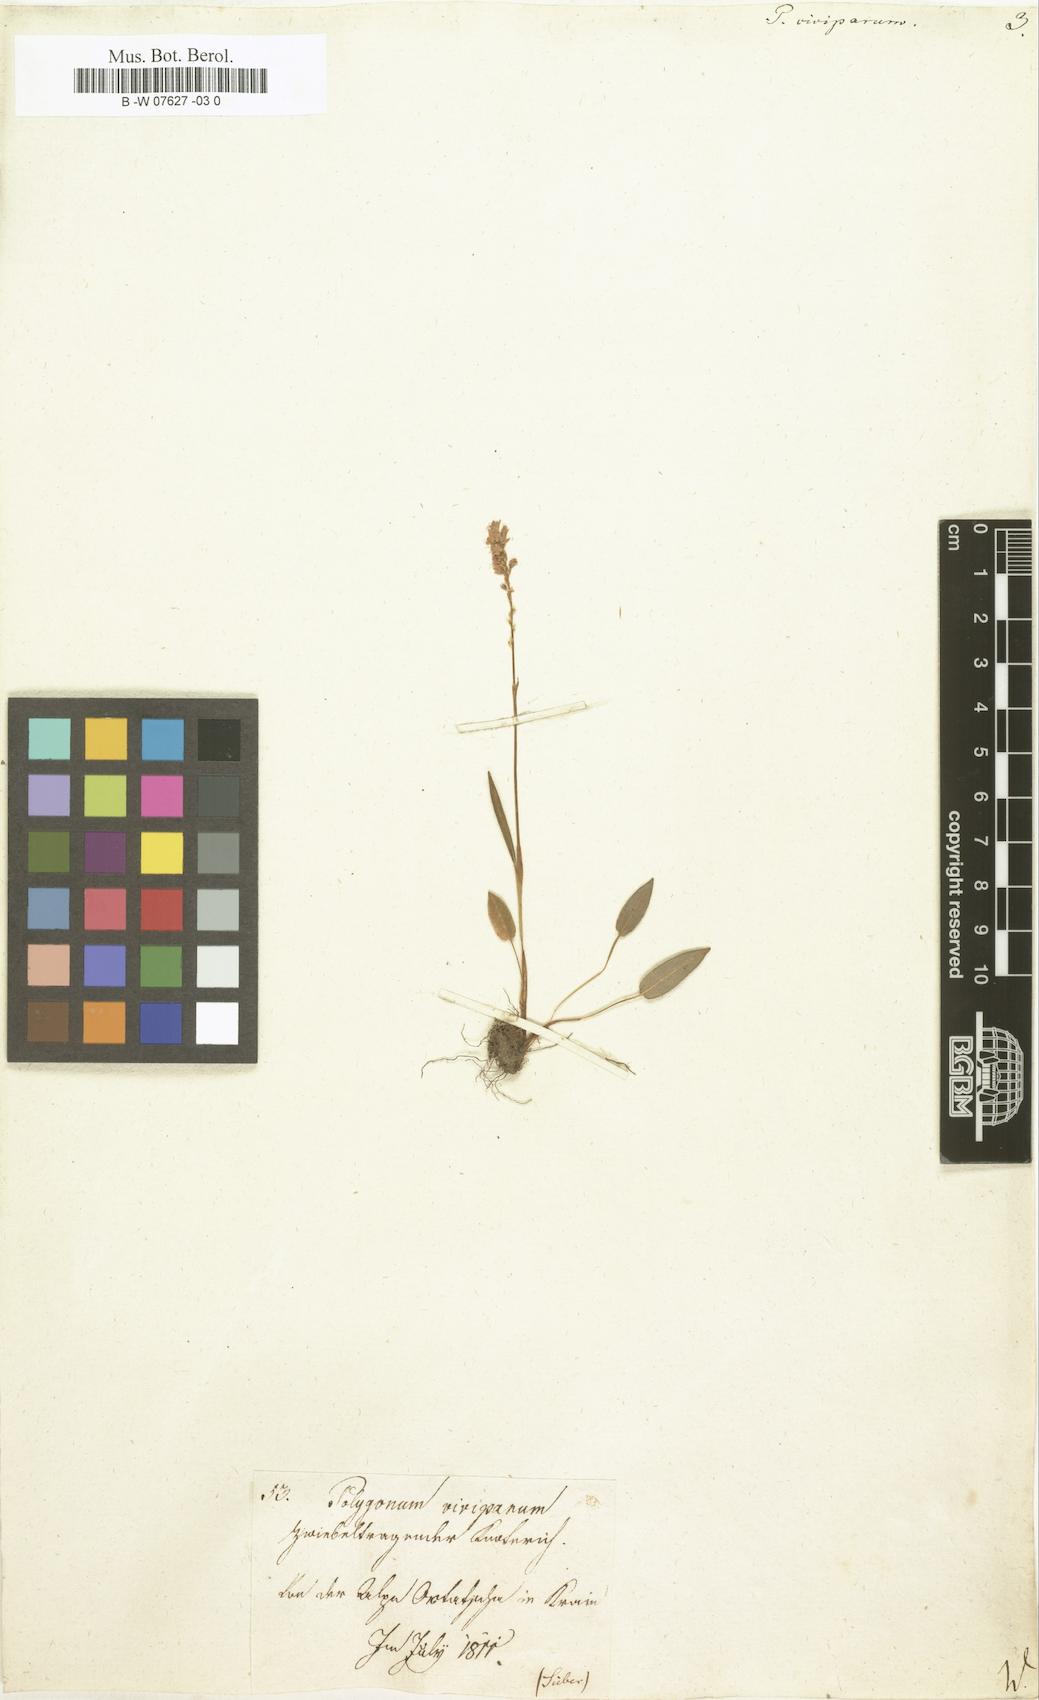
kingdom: Plantae
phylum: Tracheophyta
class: Magnoliopsida
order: Caryophyllales
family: Polygonaceae
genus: Bistorta
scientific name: Bistorta vivipara
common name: Alpine bistort
